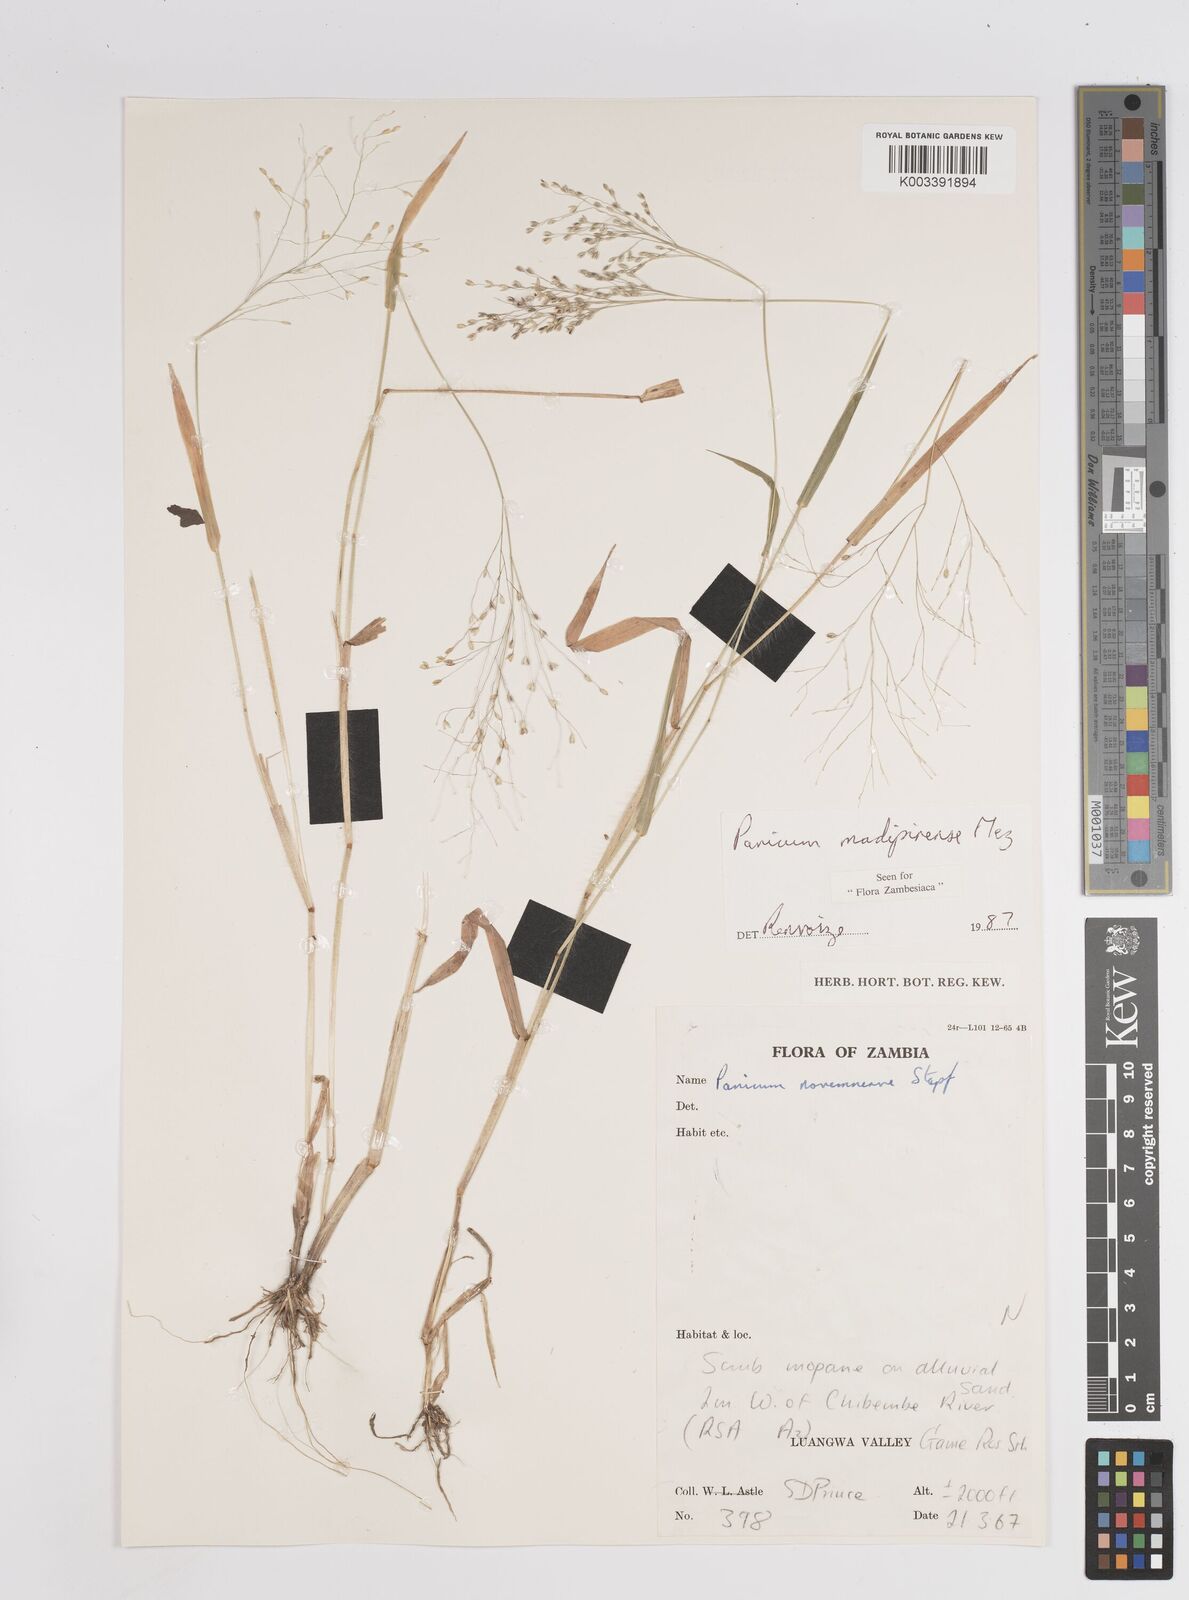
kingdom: Plantae
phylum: Tracheophyta
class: Liliopsida
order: Poales
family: Poaceae
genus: Panicum
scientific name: Panicum madipirense
